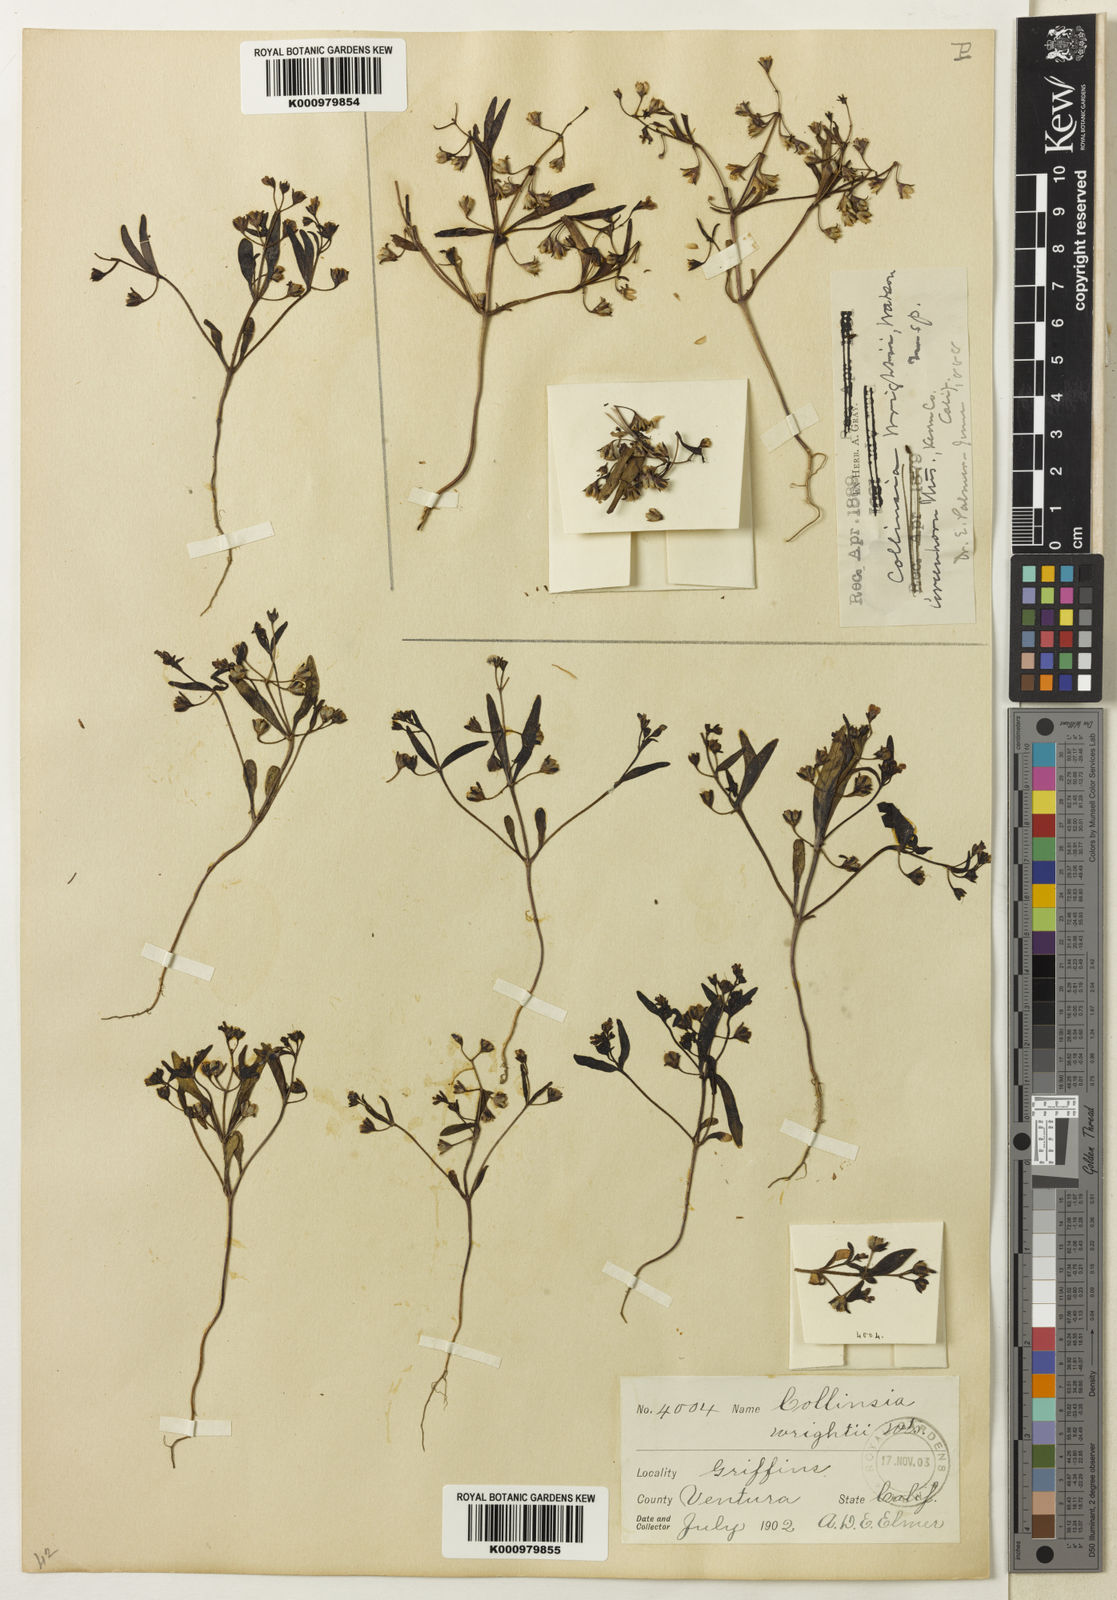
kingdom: Plantae
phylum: Tracheophyta
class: Magnoliopsida
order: Lamiales
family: Plantaginaceae
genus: Collinsia
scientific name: Collinsia torreyi
